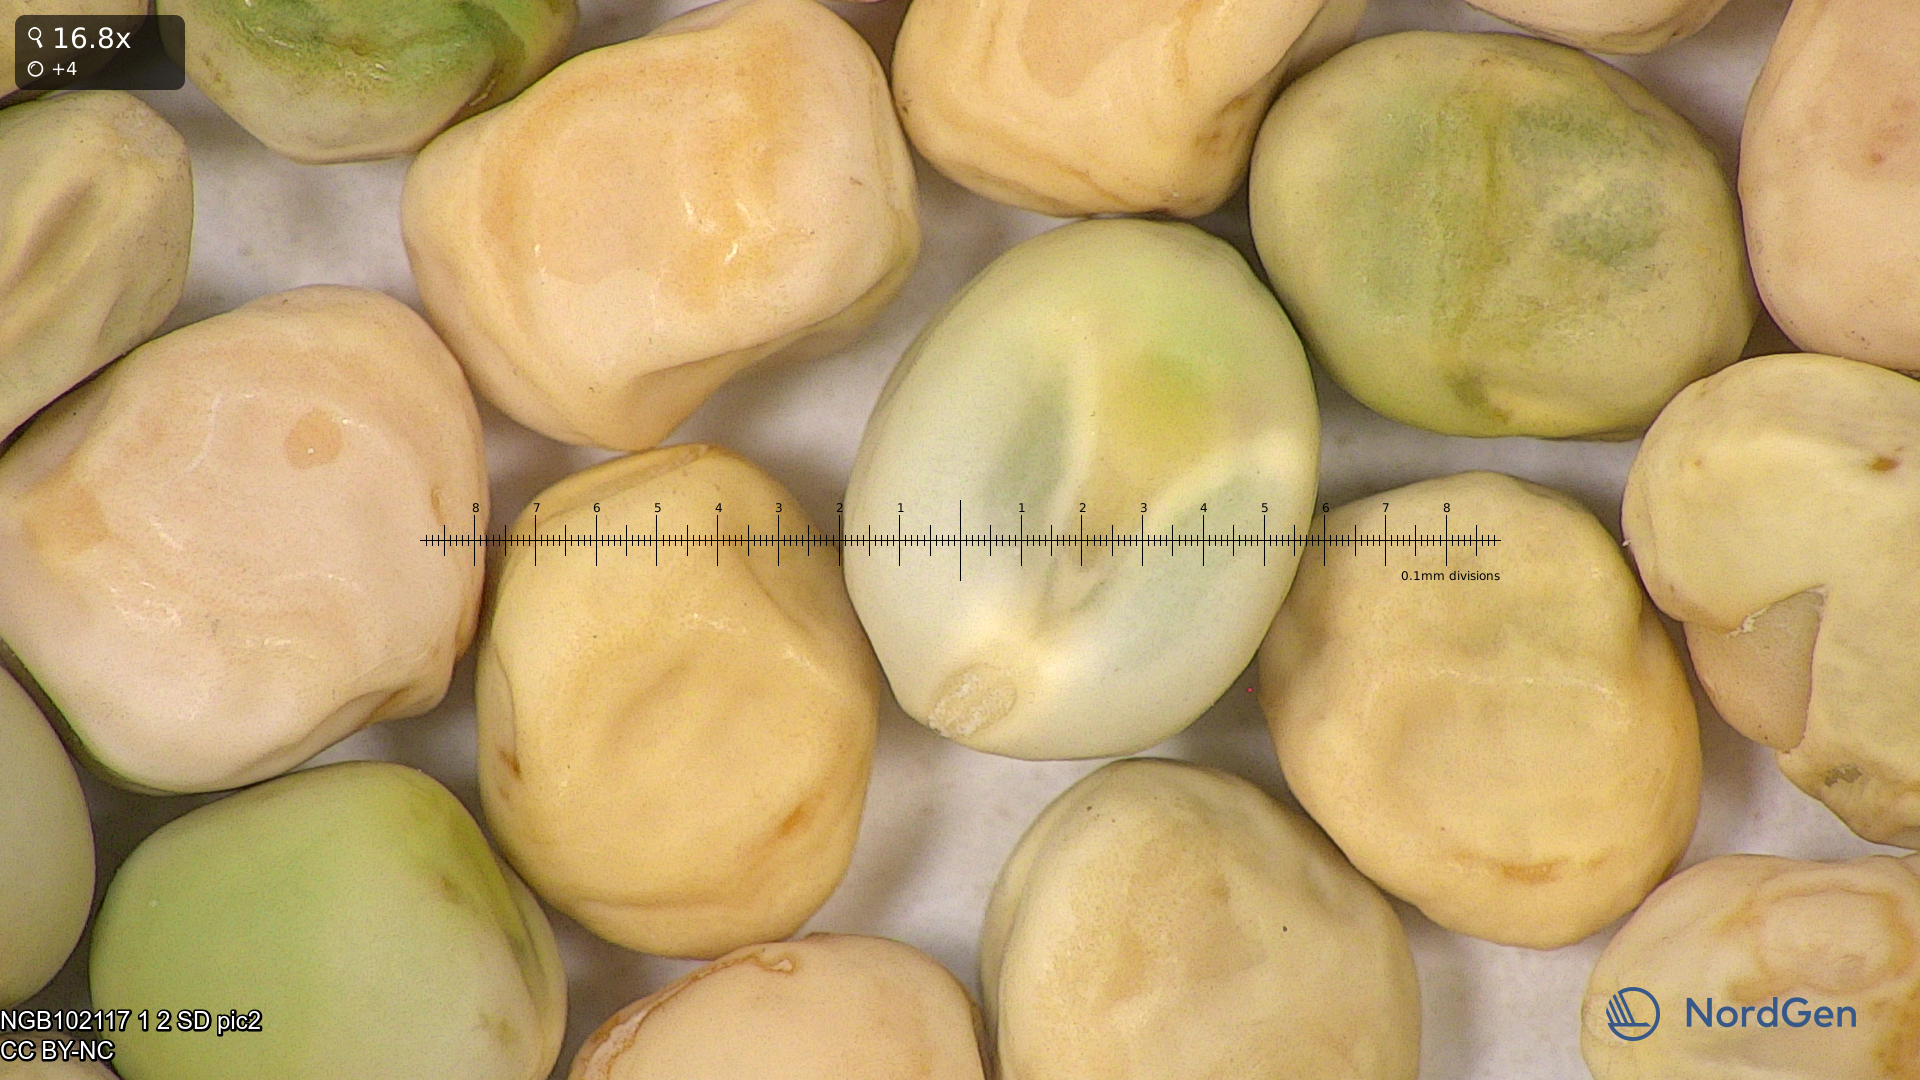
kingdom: Plantae
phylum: Tracheophyta
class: Magnoliopsida
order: Fabales
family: Fabaceae
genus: Lathyrus
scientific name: Lathyrus oleraceus
